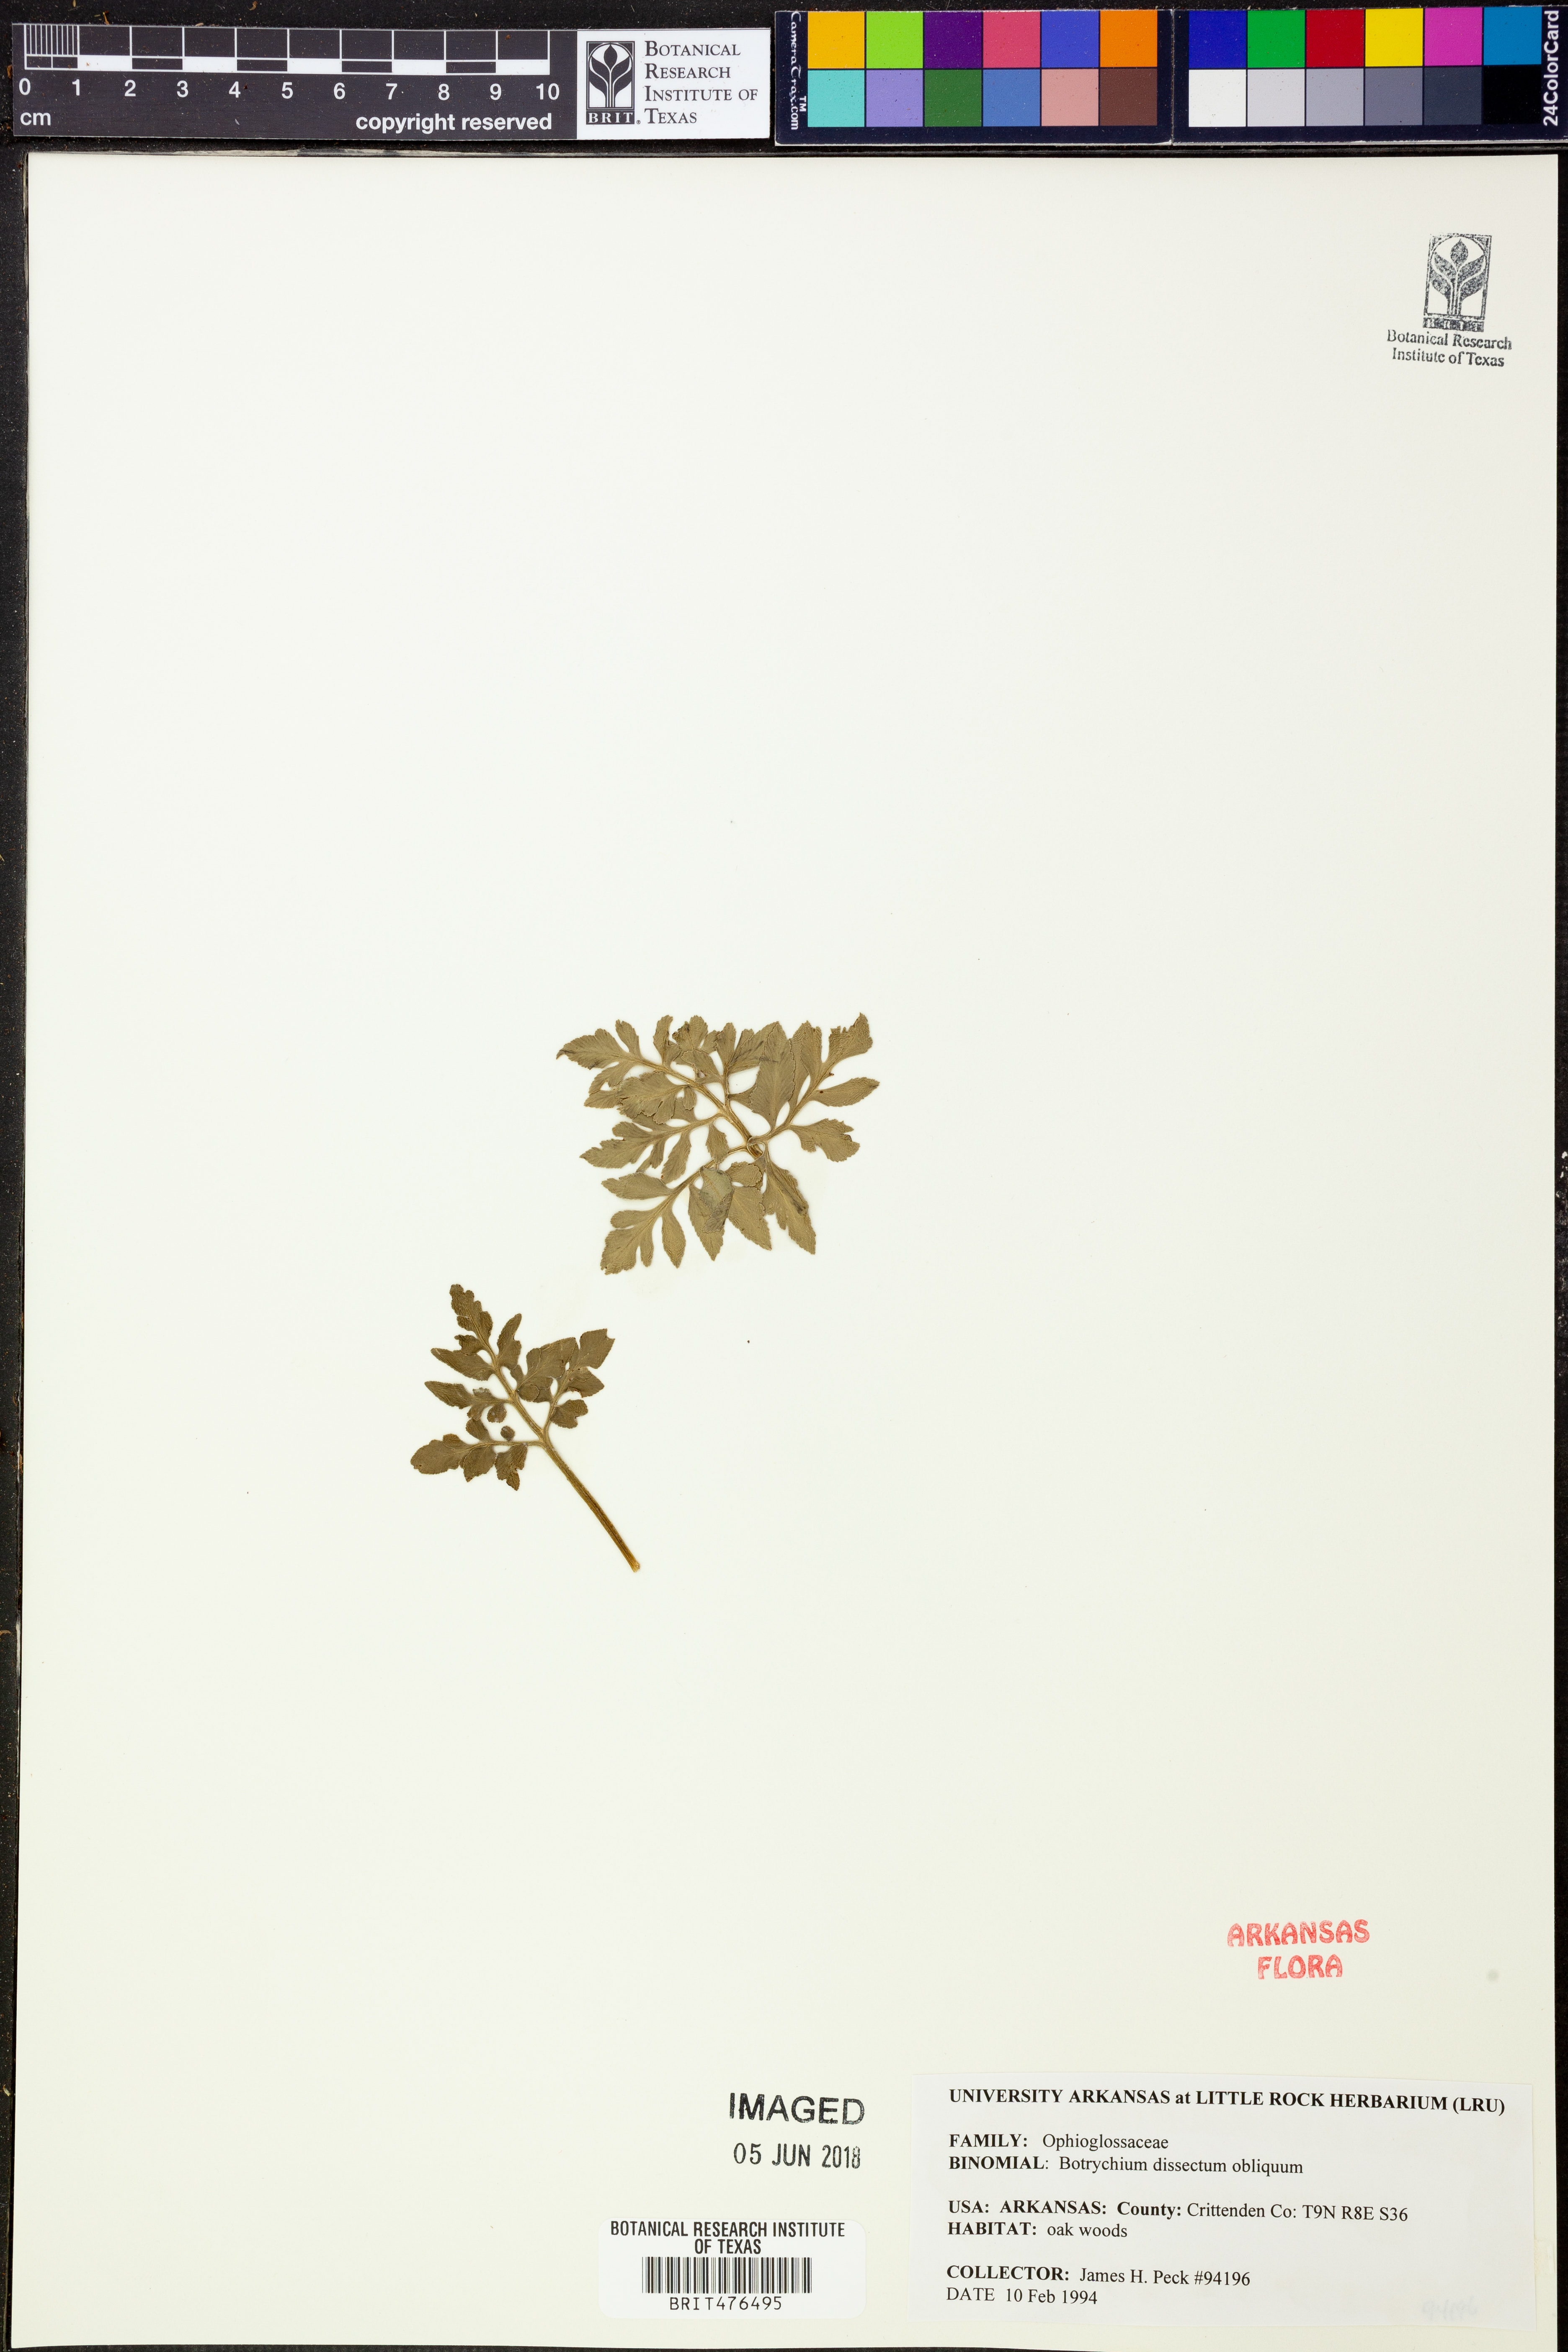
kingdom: Plantae
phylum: Tracheophyta
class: Polypodiopsida
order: Ophioglossales
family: Ophioglossaceae
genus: Sceptridium
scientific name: Sceptridium dissectum
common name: Cut-leaved grapefern
